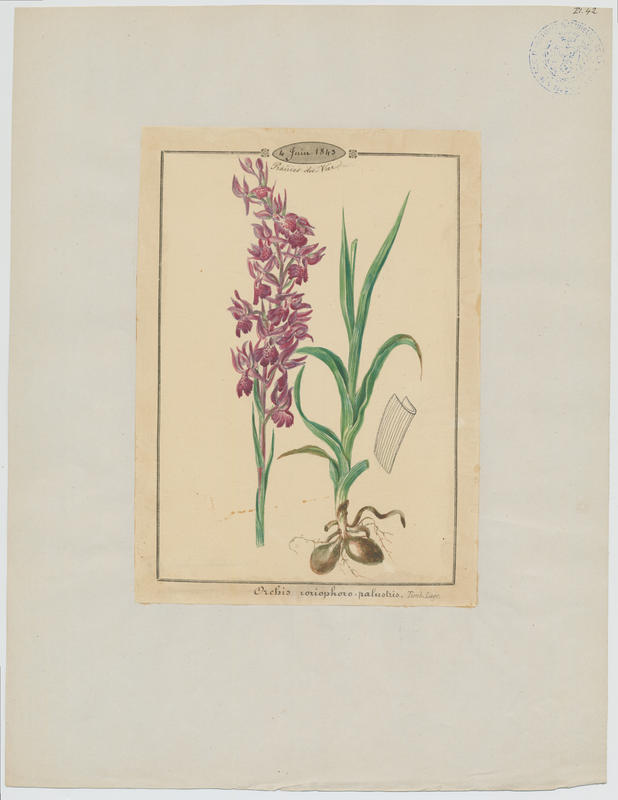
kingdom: Plantae
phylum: Tracheophyta
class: Liliopsida
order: Asparagales
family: Orchidaceae
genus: Anacamptis
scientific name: Anacamptis timbali
